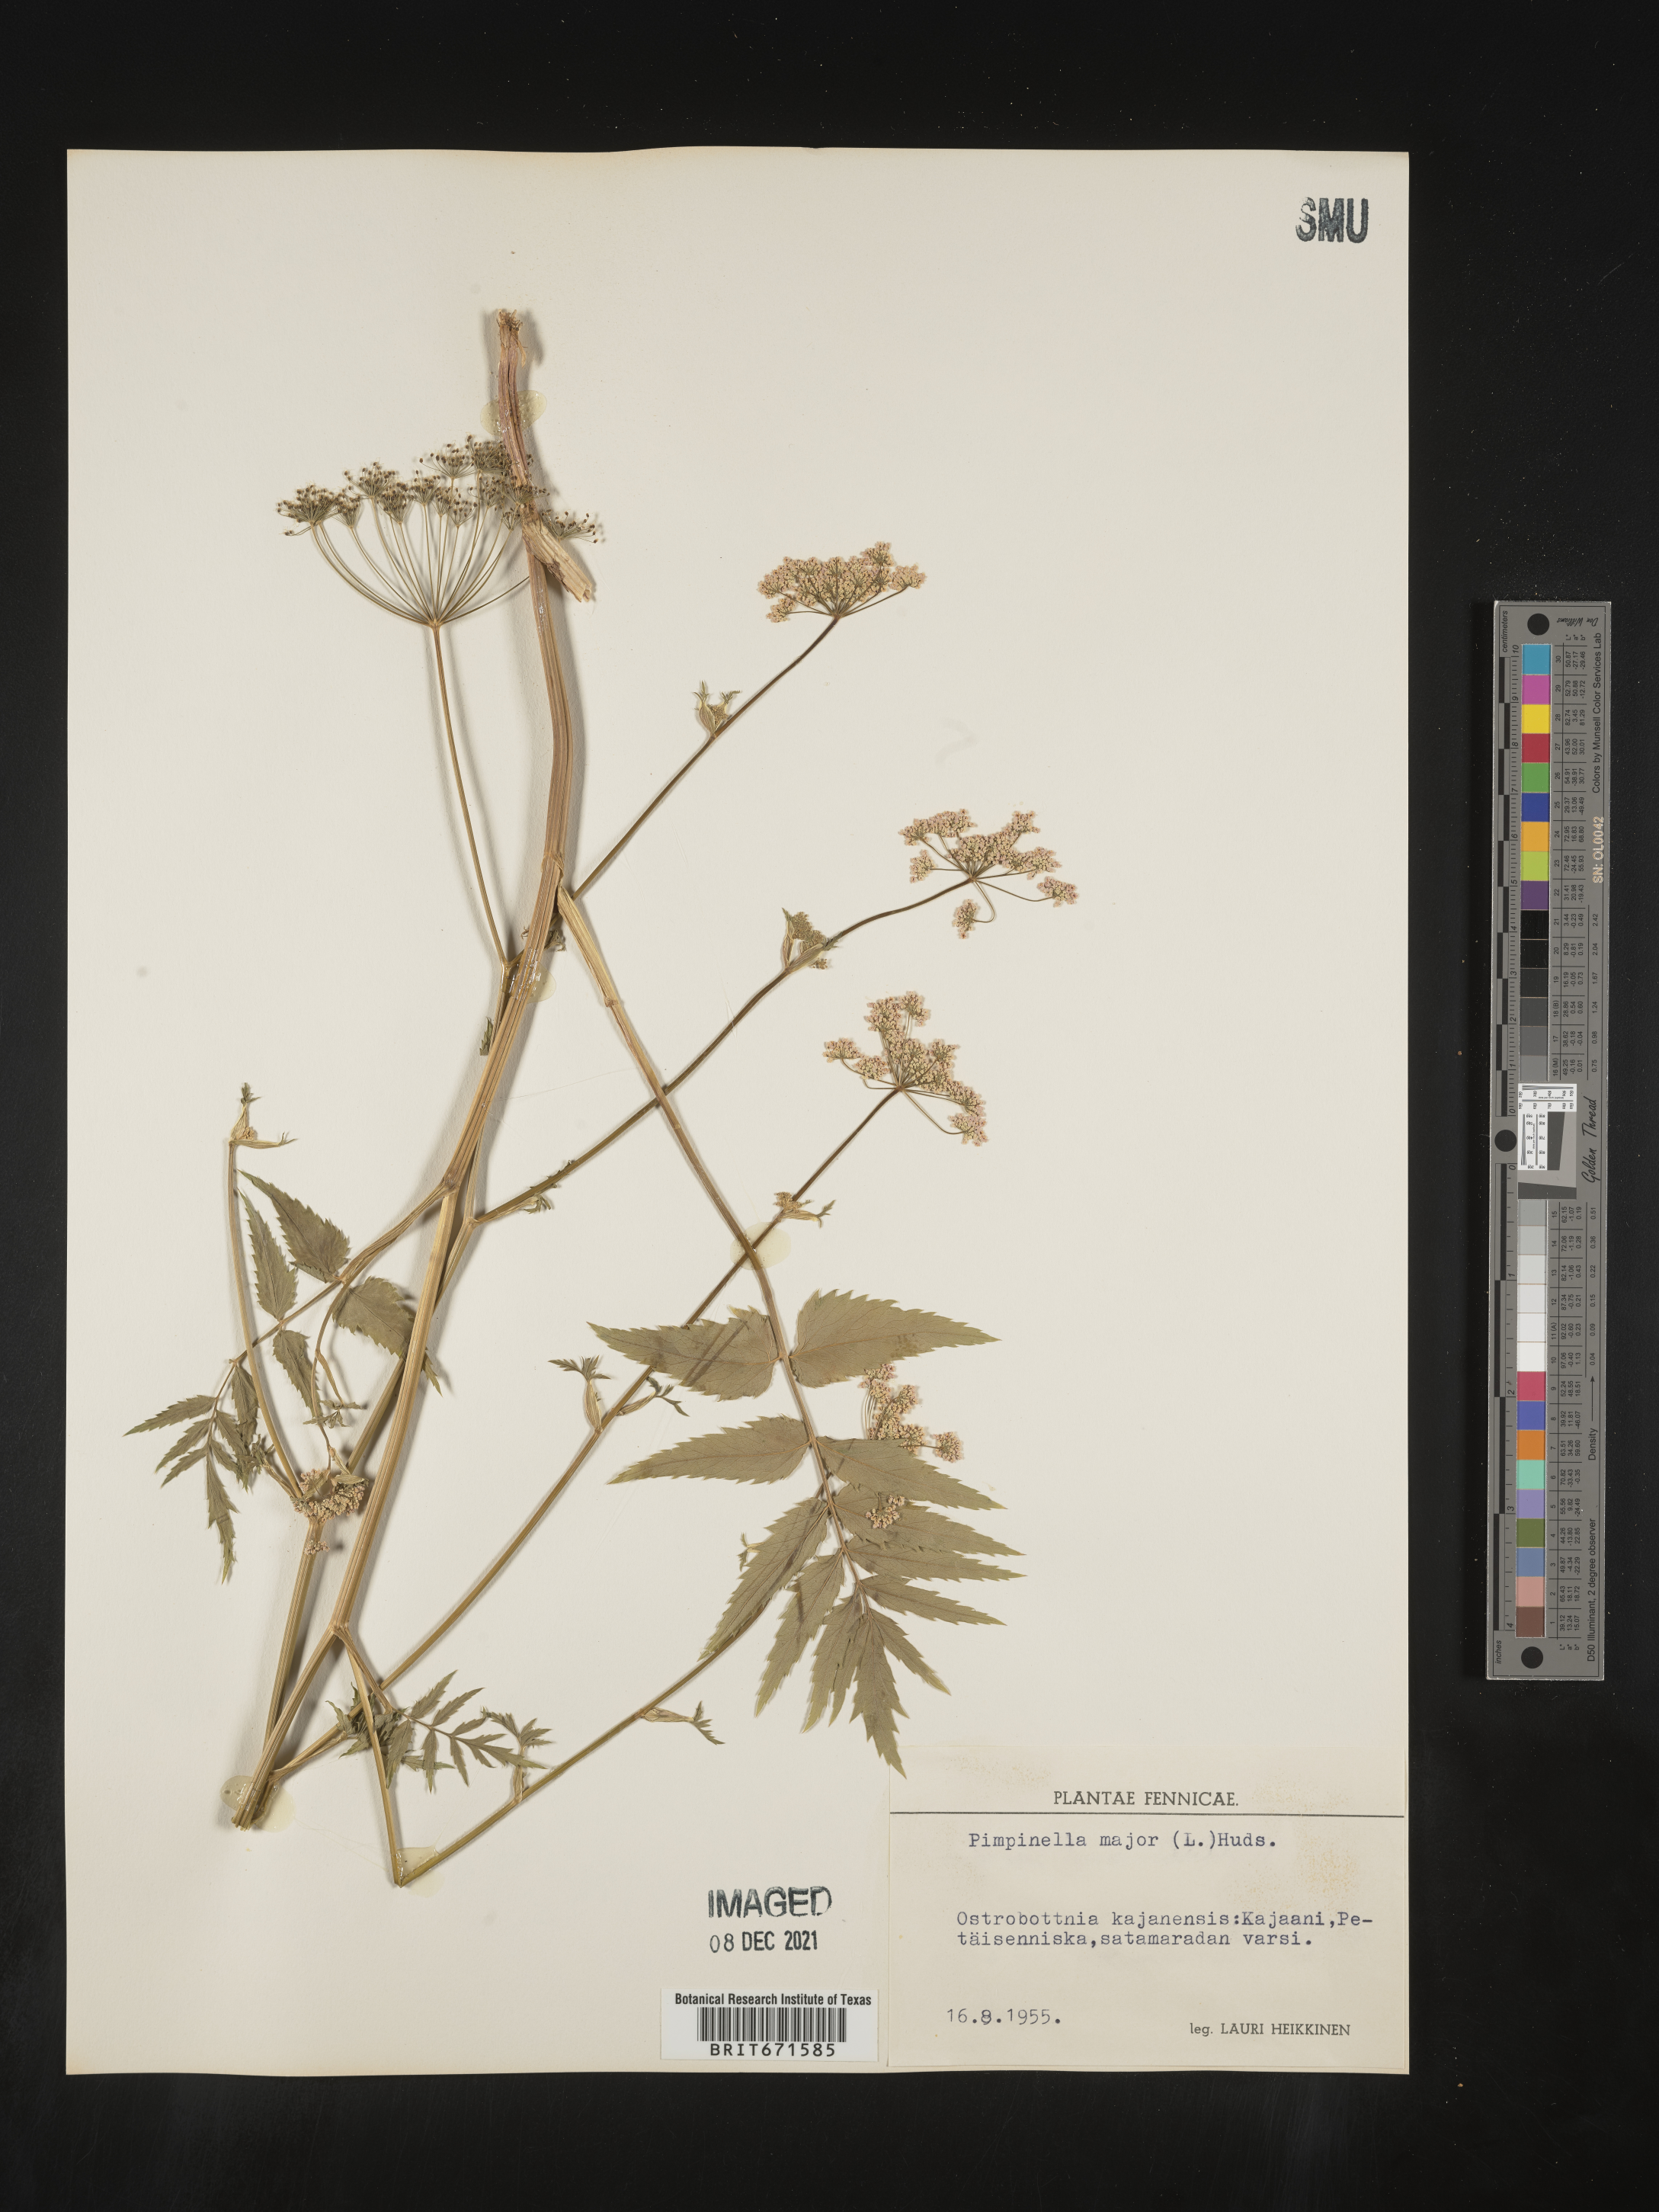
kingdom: Plantae
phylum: Tracheophyta
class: Magnoliopsida
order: Apiales
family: Apiaceae
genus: Pimpinella
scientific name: Pimpinella major
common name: Greater burnet-saxifrage
